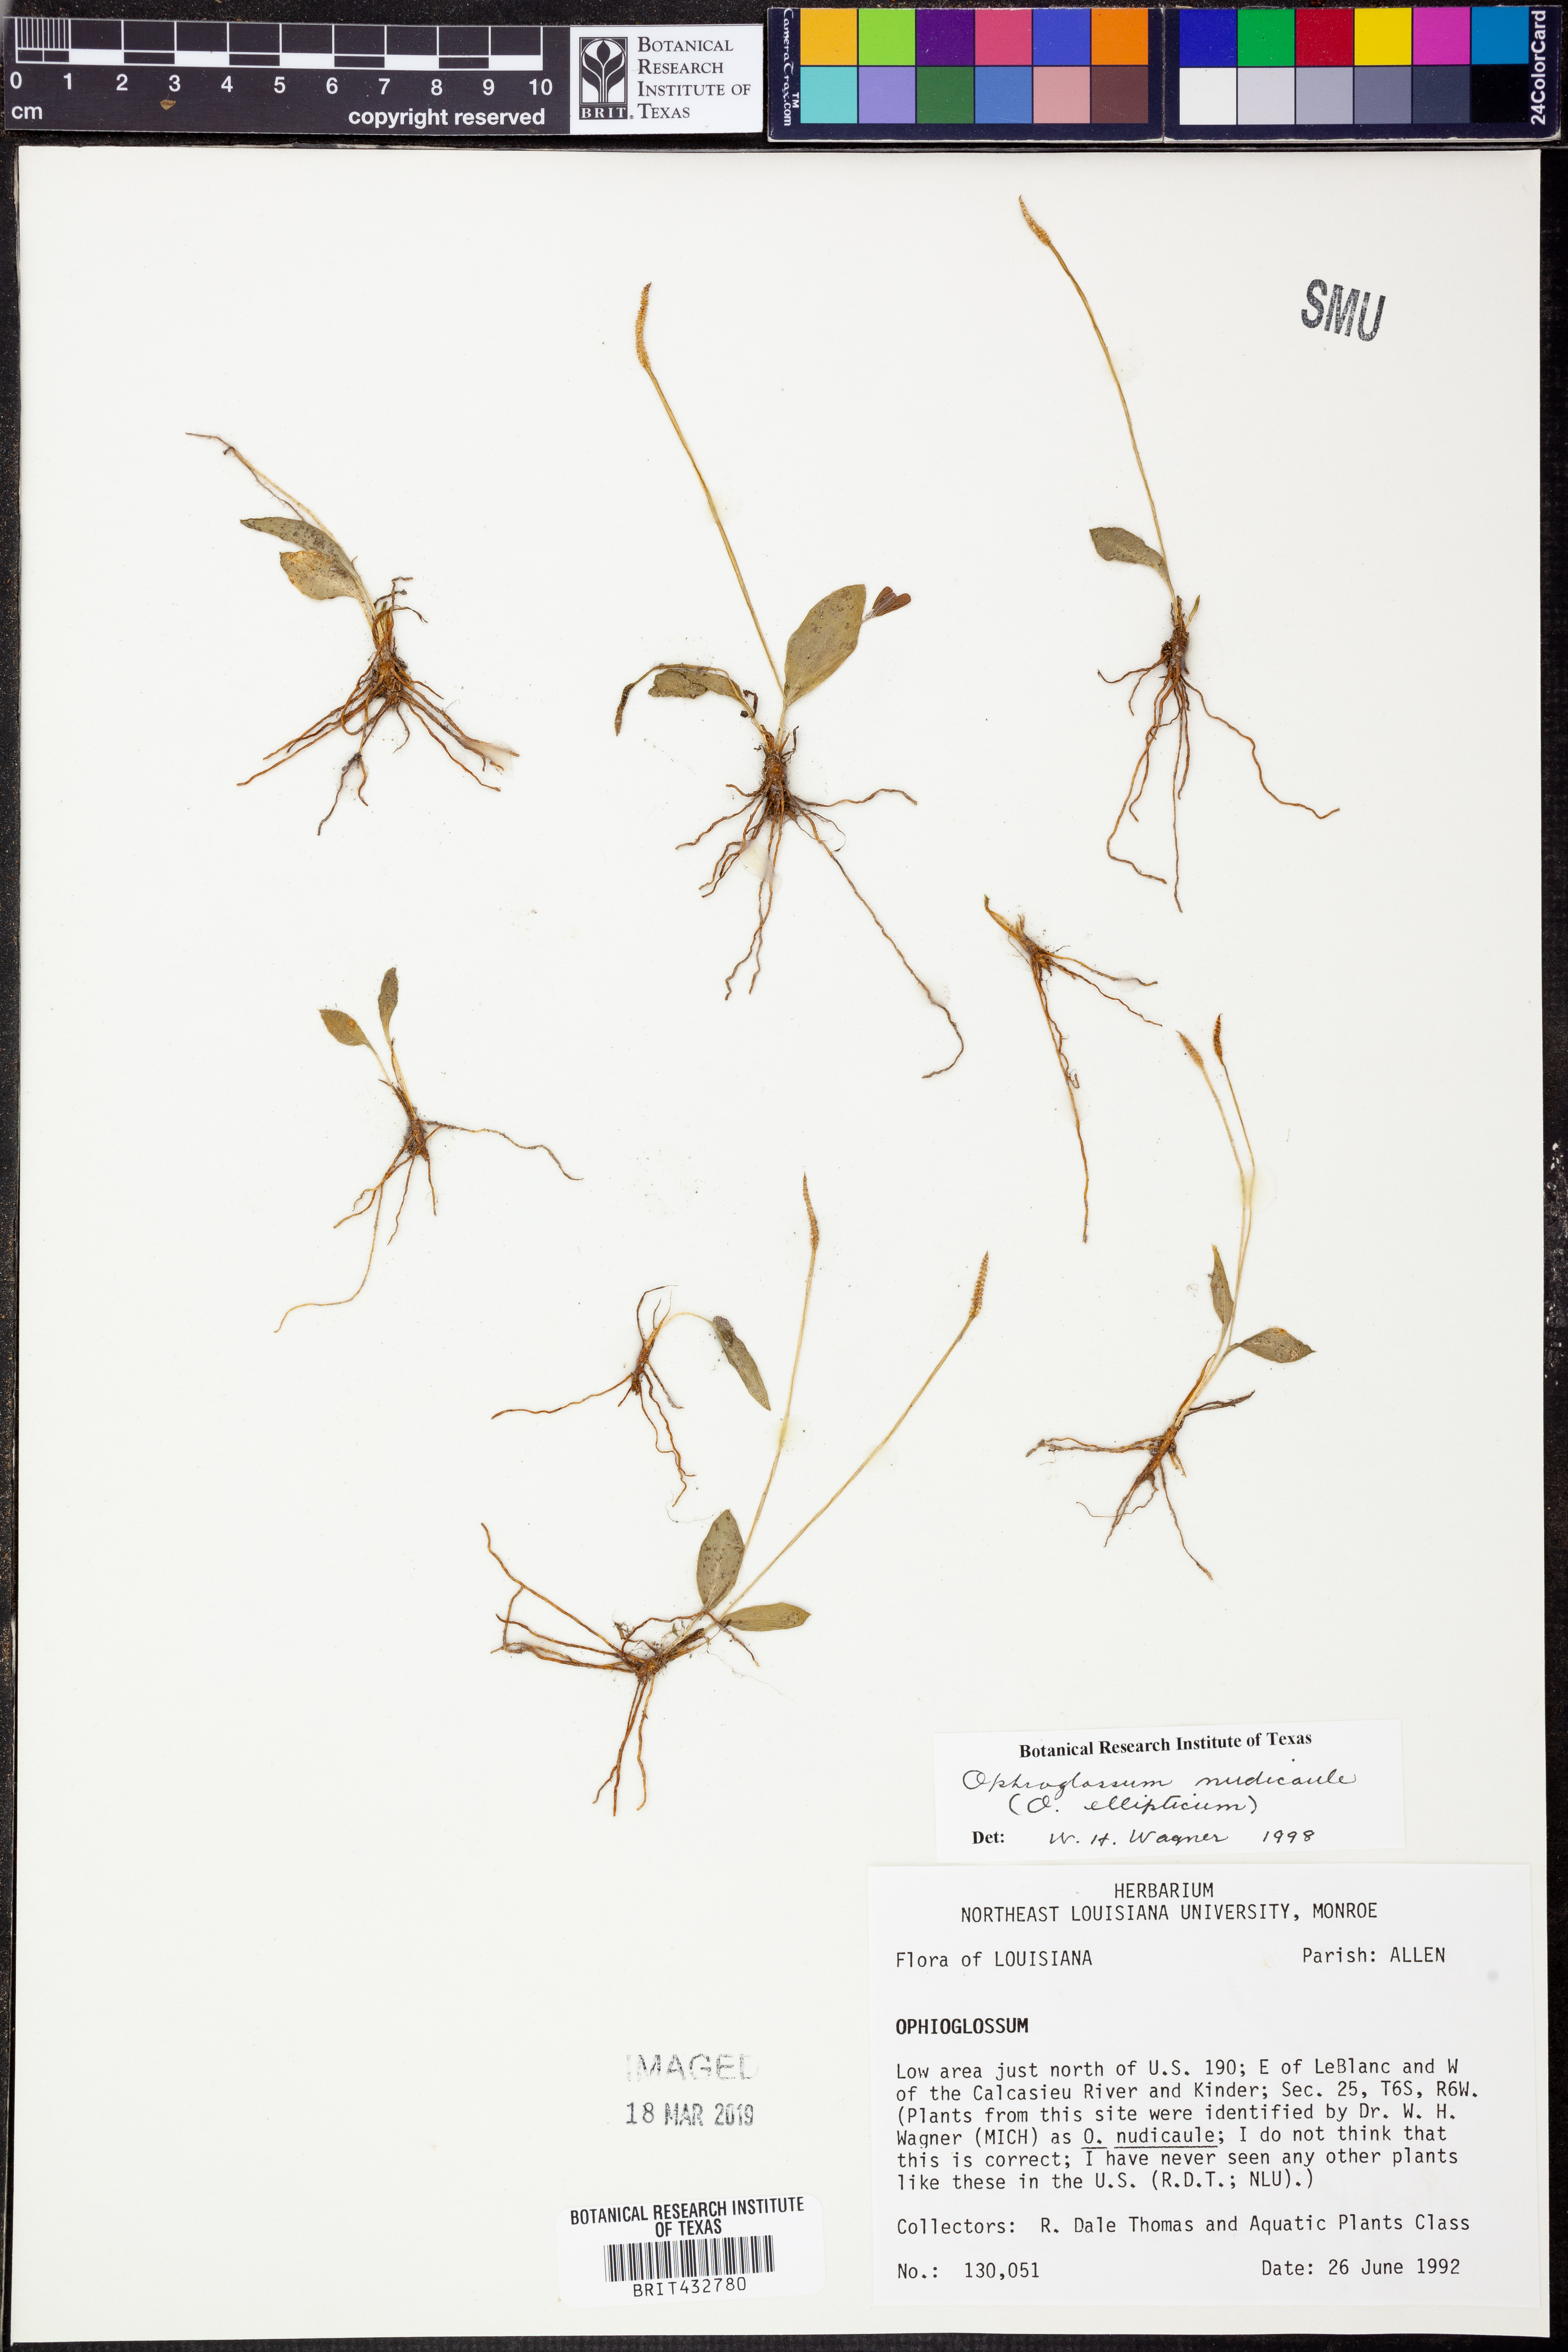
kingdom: Plantae
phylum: Tracheophyta
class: Polypodiopsida
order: Ophioglossales
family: Ophioglossaceae
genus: Ophioglossum
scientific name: Ophioglossum nudicaule
